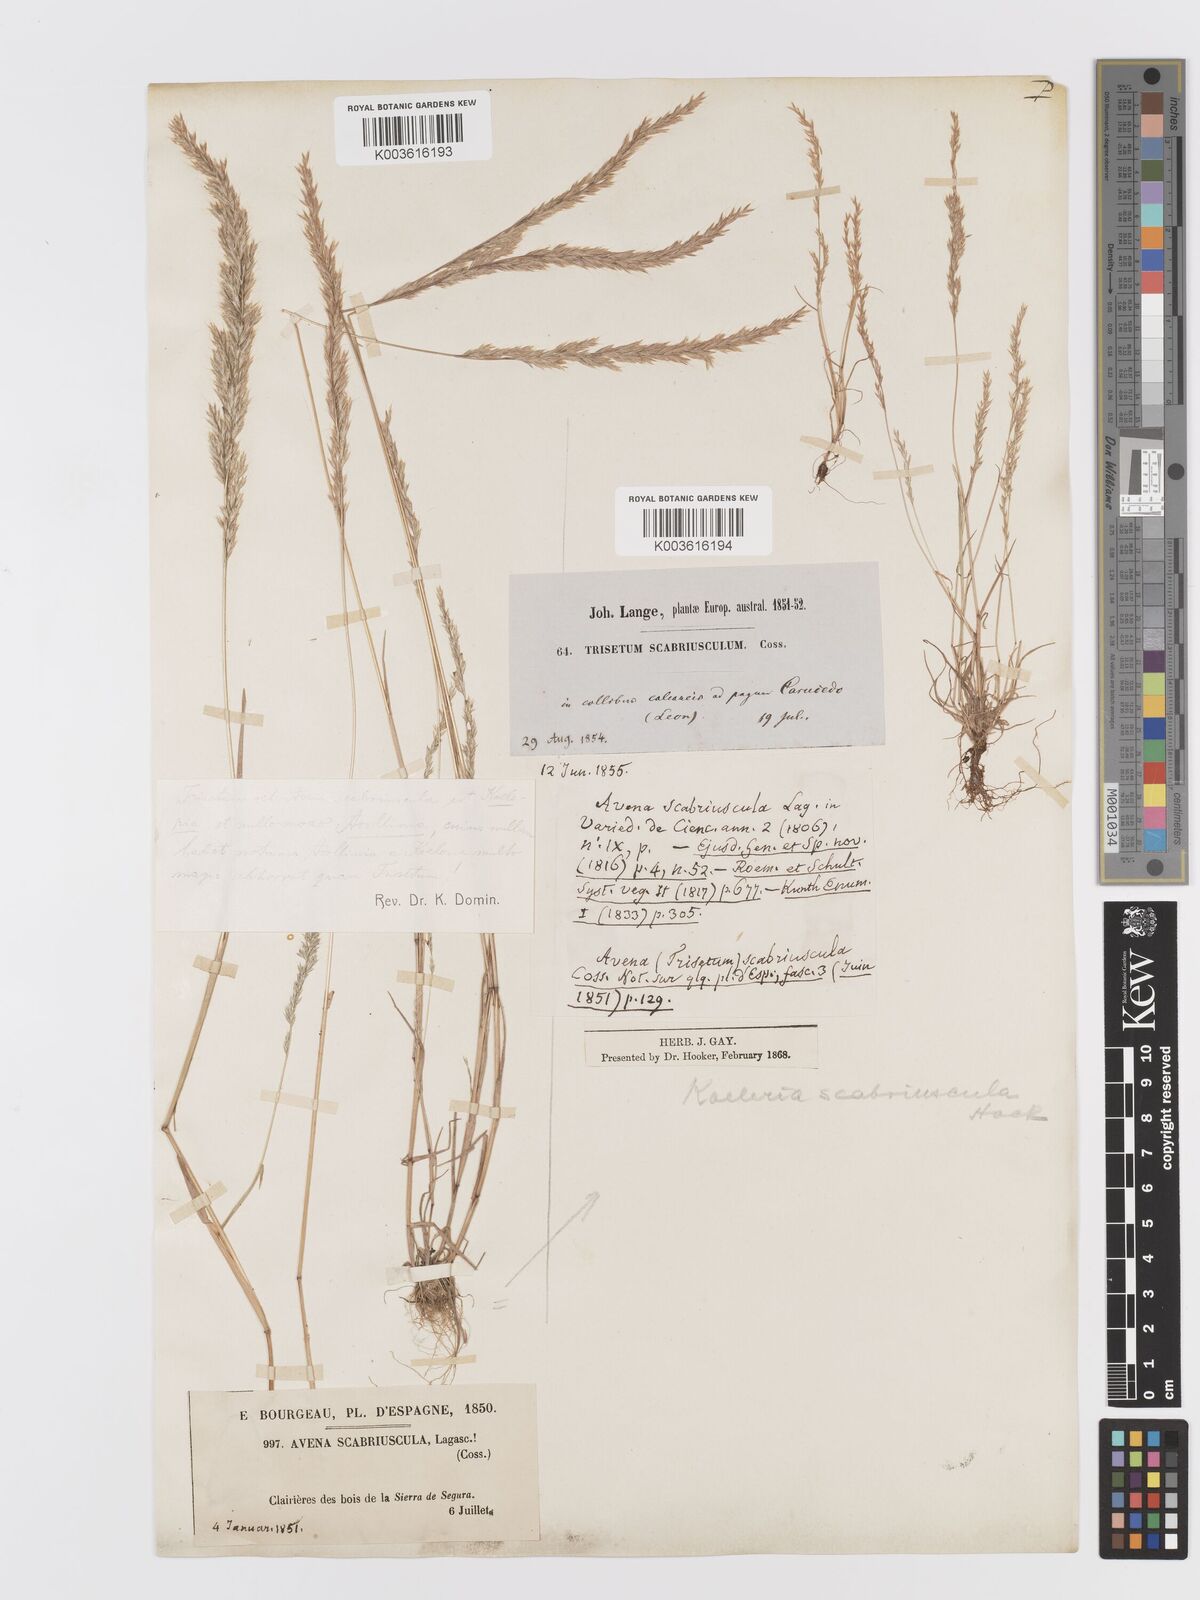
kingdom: Plantae
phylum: Tracheophyta
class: Liliopsida
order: Poales
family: Poaceae
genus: Trisetaria
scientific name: Trisetaria scabriuscula
